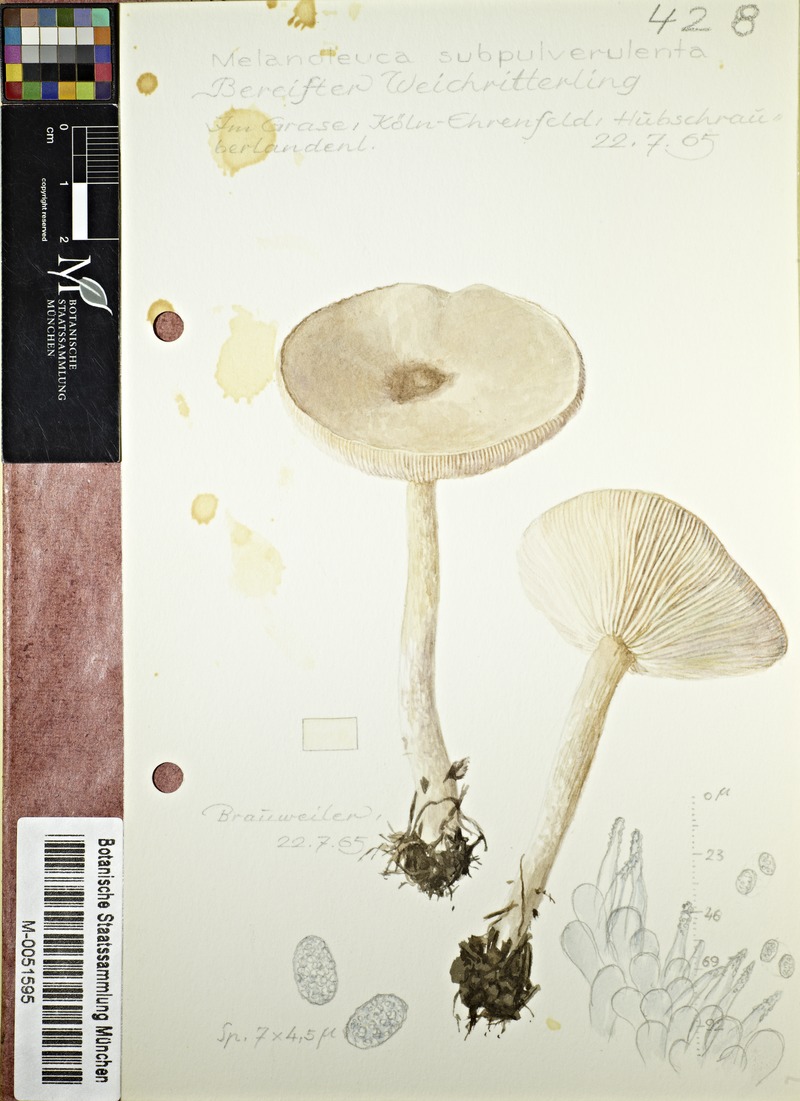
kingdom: Fungi
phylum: Basidiomycota
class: Agaricomycetes
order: Agaricales
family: Tricholomataceae
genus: Melanoleuca
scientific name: Melanoleuca subpulverulenta
